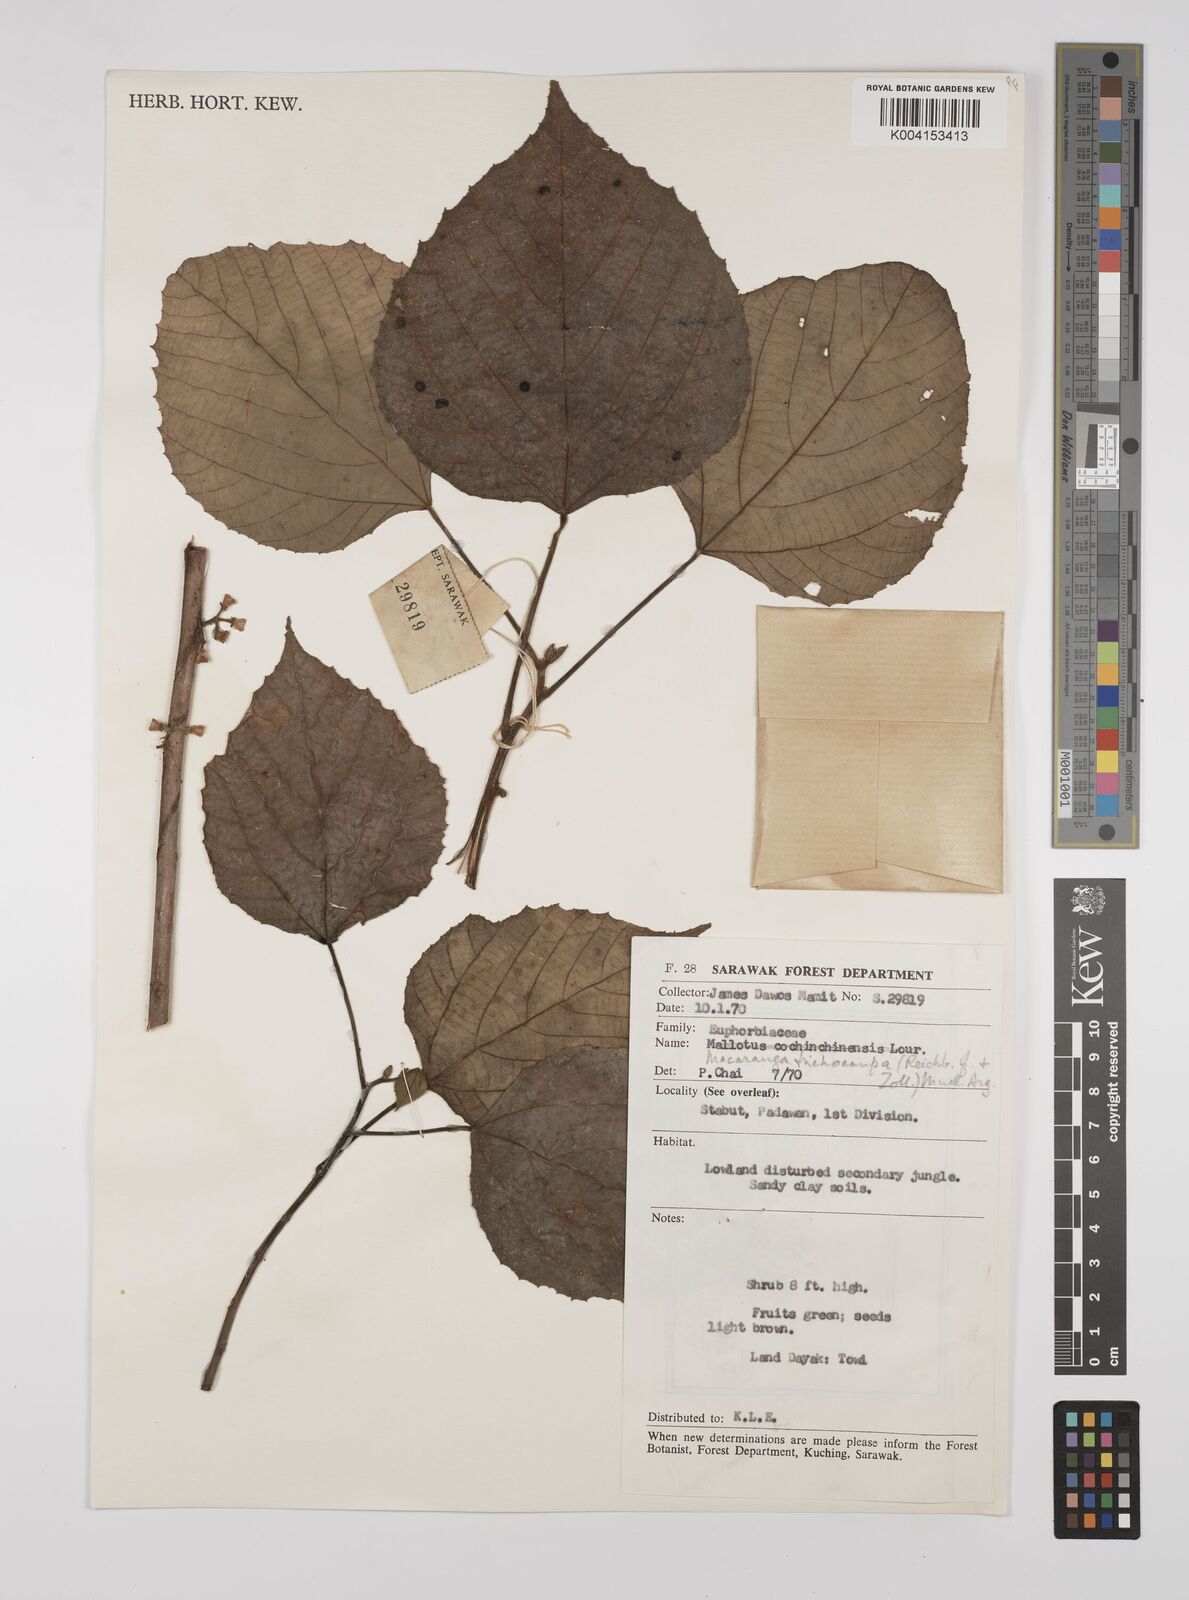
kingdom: Plantae
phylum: Tracheophyta
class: Magnoliopsida
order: Malpighiales
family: Euphorbiaceae
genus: Macaranga
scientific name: Macaranga trichocarpa
